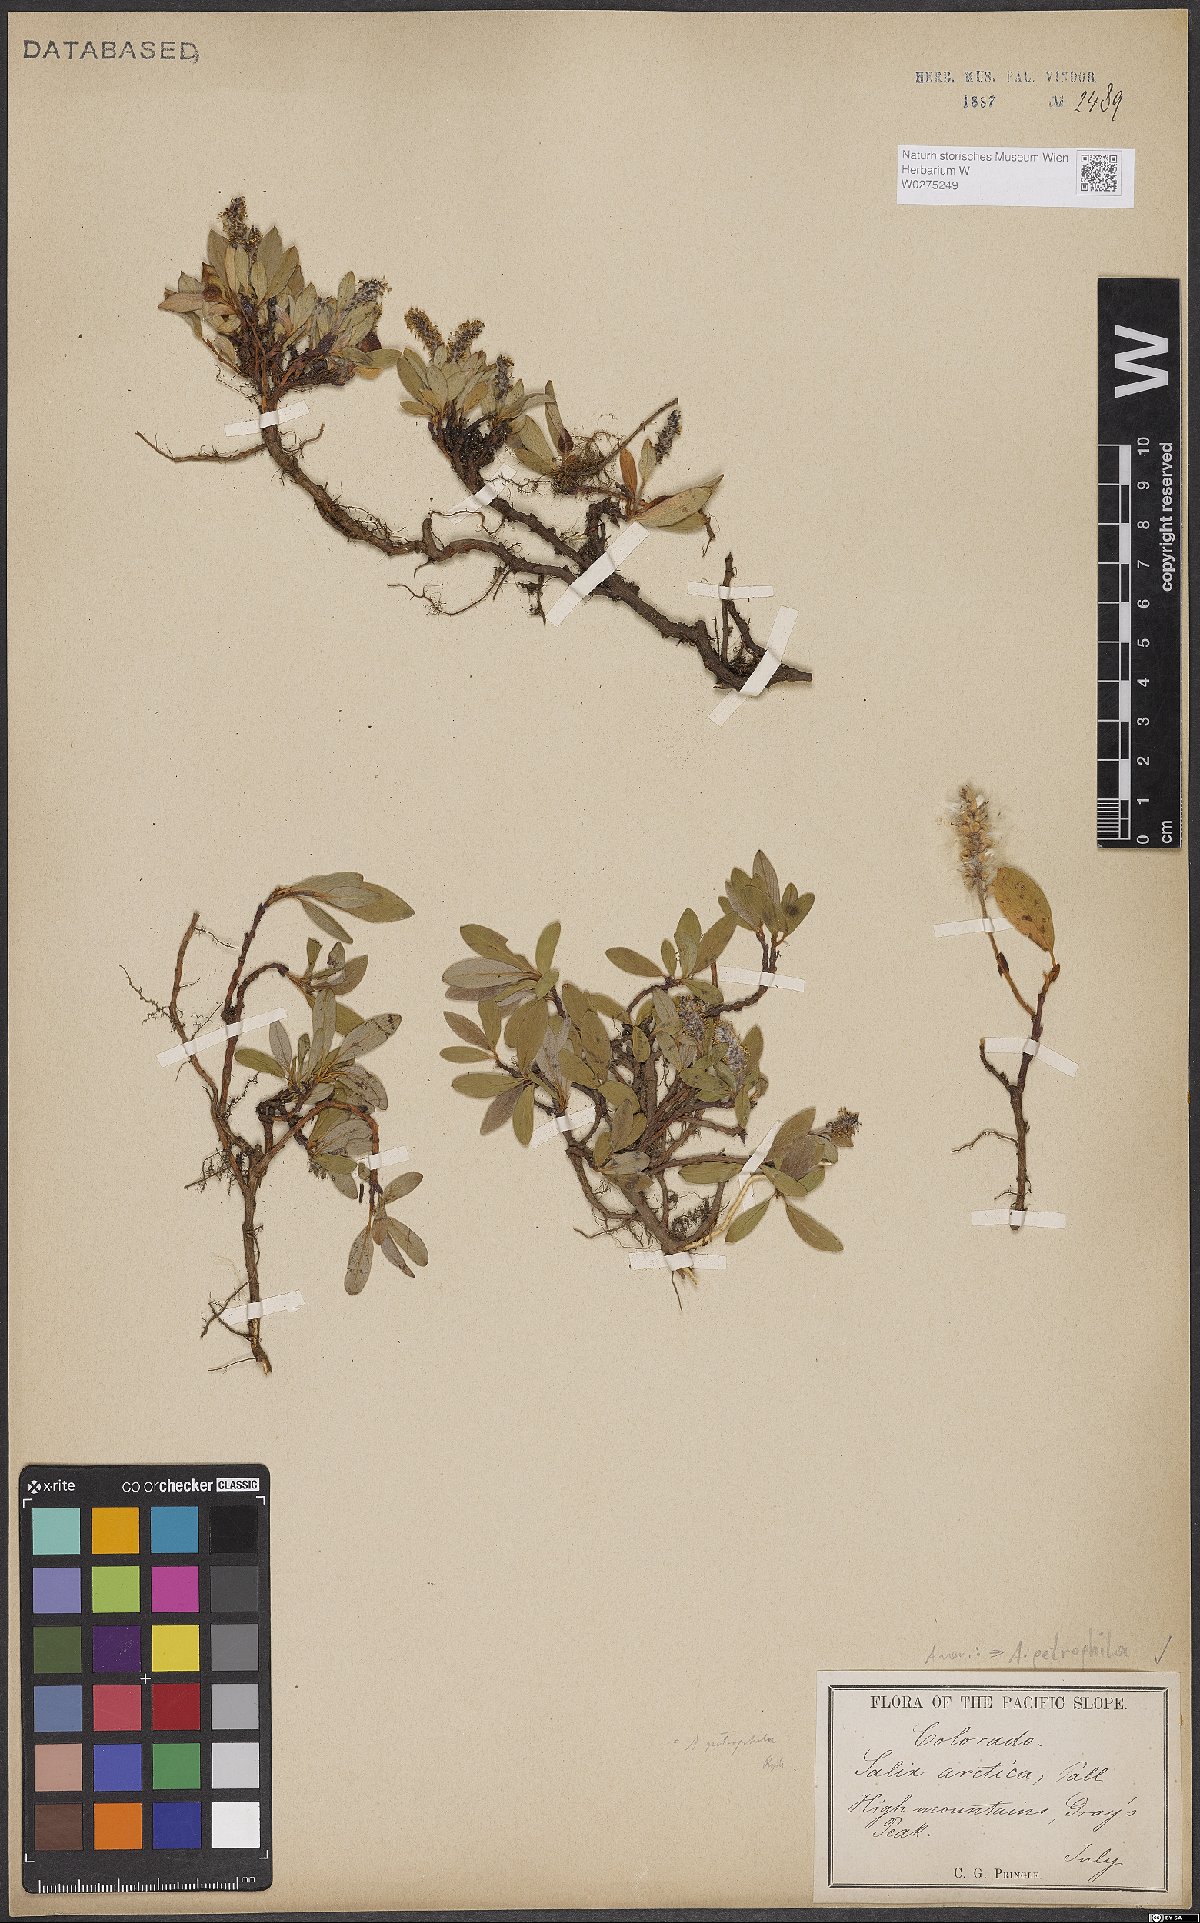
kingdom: Plantae
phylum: Tracheophyta
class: Magnoliopsida
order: Malpighiales
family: Salicaceae
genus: Salix
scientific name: Salix petrophila
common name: Rocky mountain willow
